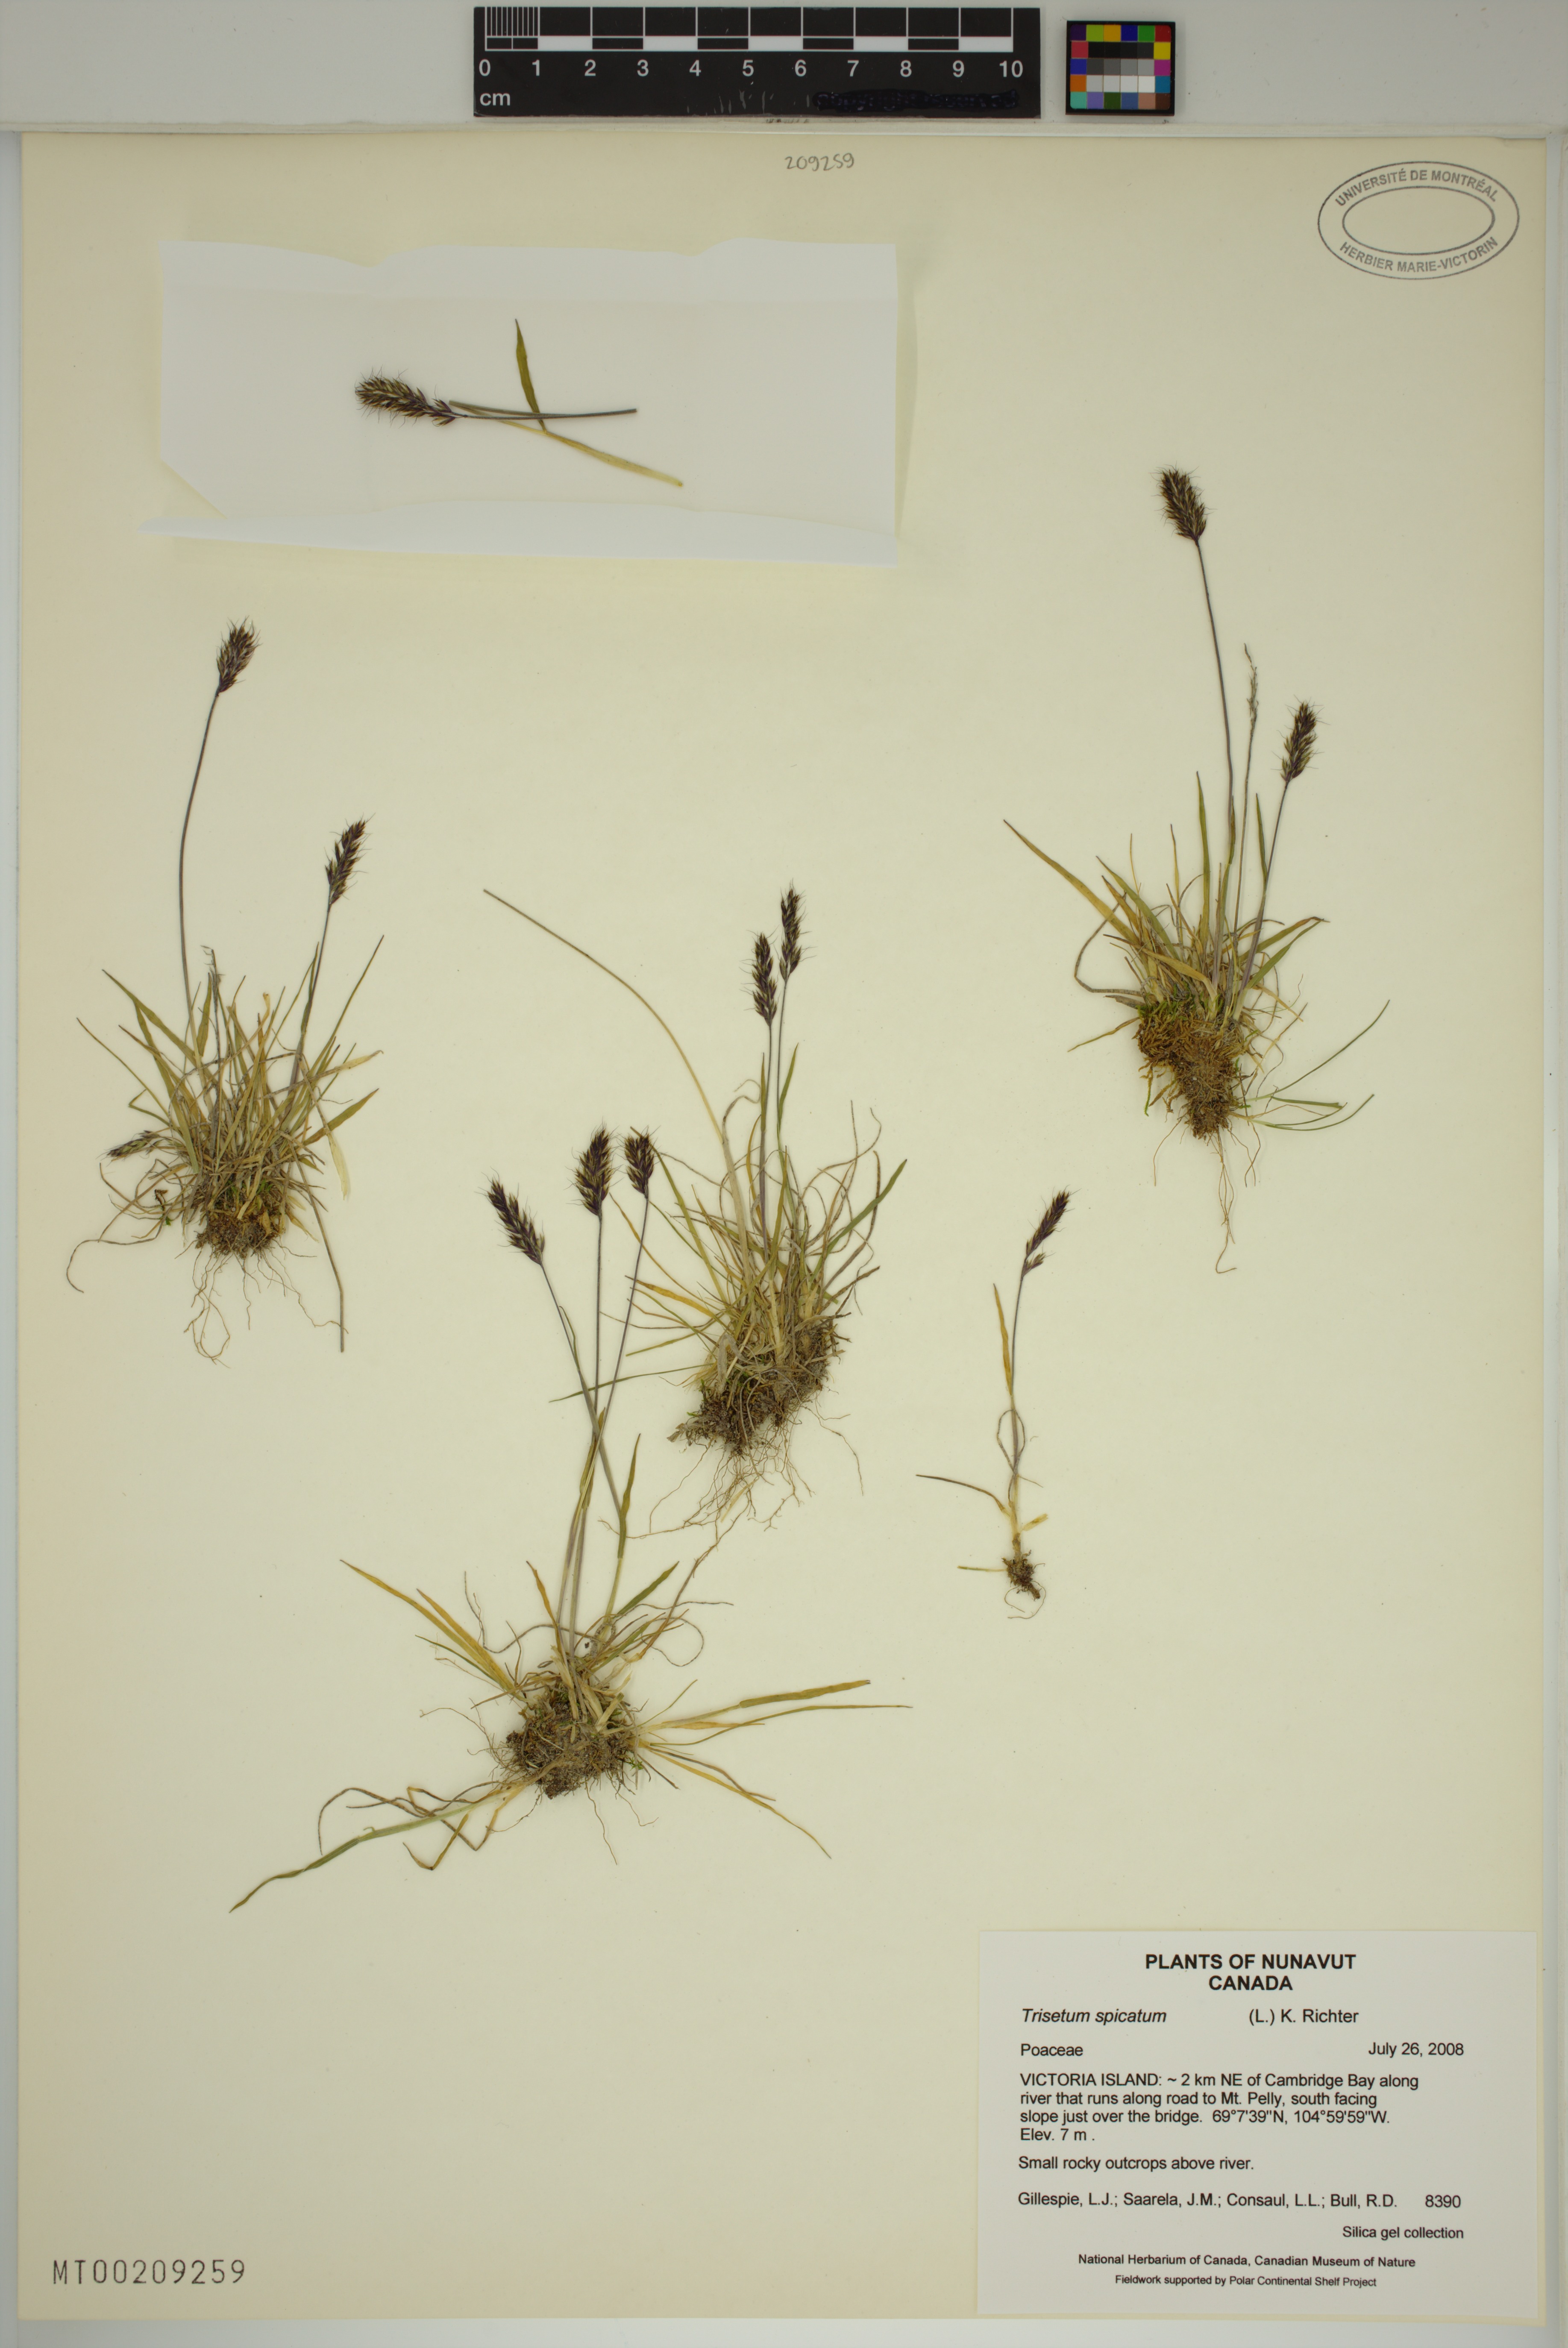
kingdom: Plantae
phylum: Tracheophyta
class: Liliopsida
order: Poales
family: Poaceae
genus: Koeleria
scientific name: Koeleria spicata
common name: Mountain trisetum
